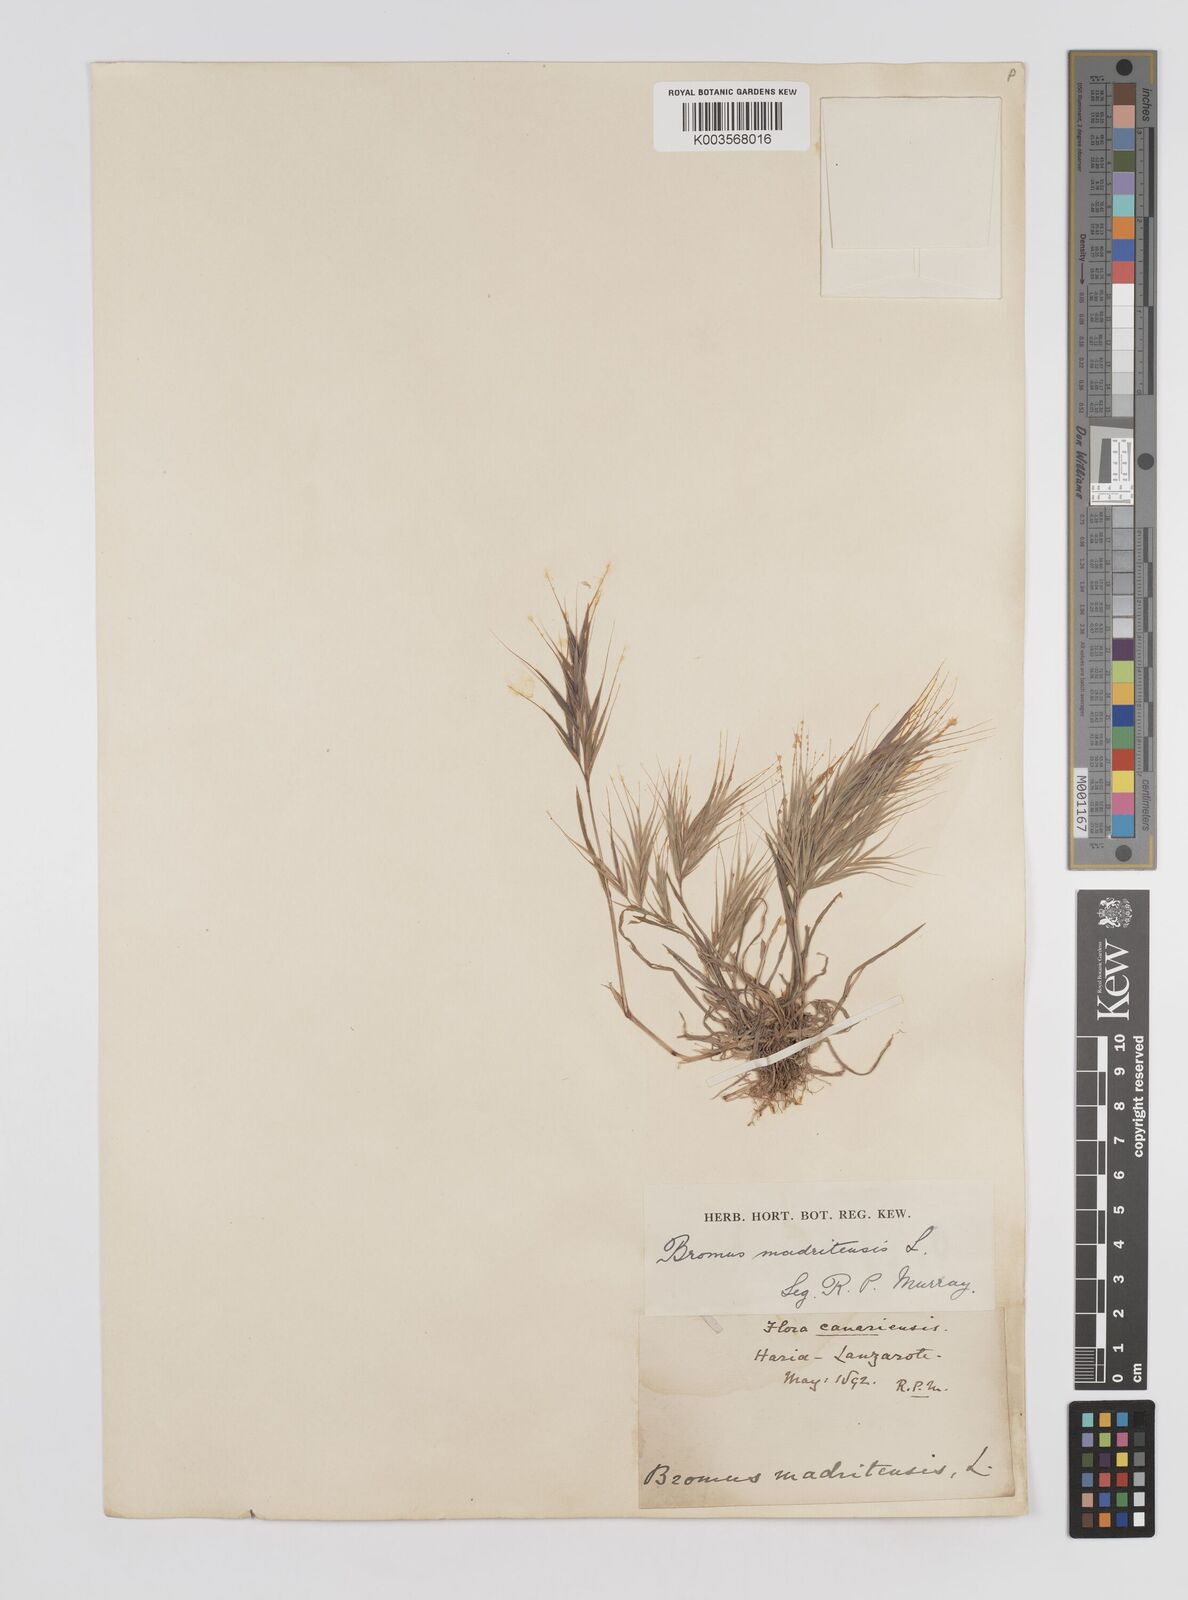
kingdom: Plantae
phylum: Tracheophyta
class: Liliopsida
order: Poales
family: Poaceae
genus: Bromus
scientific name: Bromus
